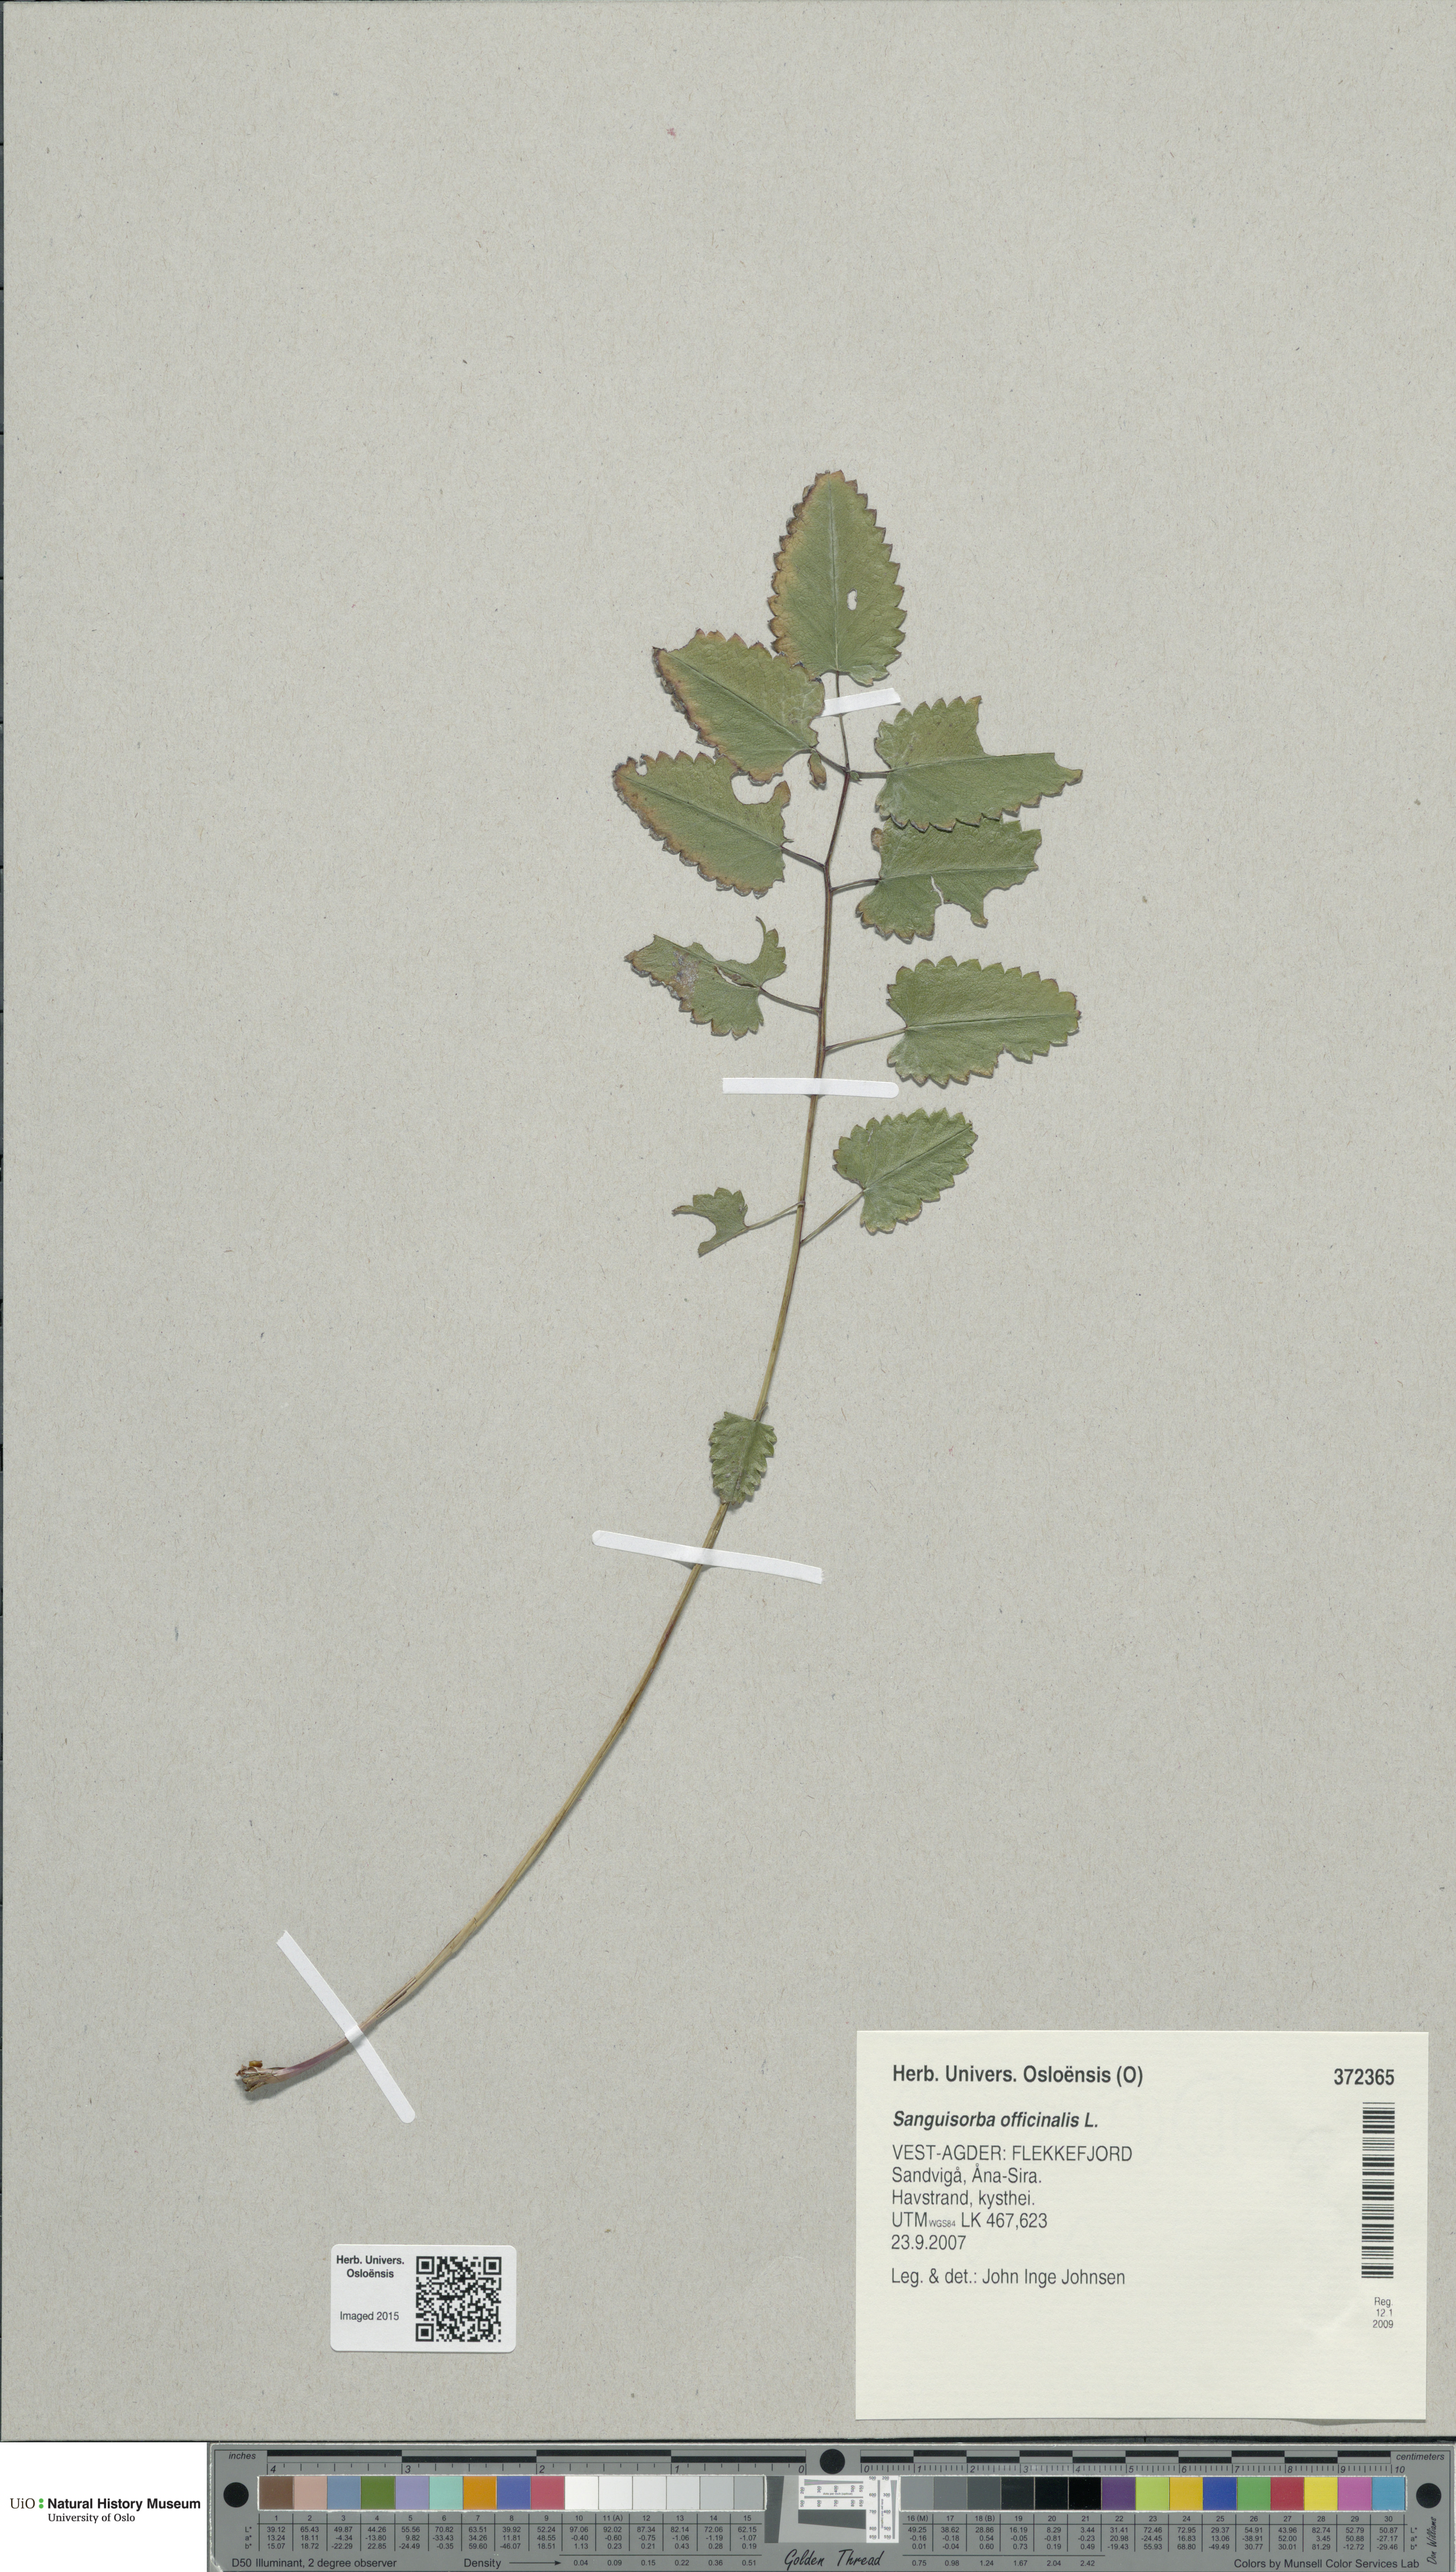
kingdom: Plantae
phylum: Tracheophyta
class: Magnoliopsida
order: Rosales
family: Rosaceae
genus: Sanguisorba
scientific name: Sanguisorba officinalis
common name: Great burnet
